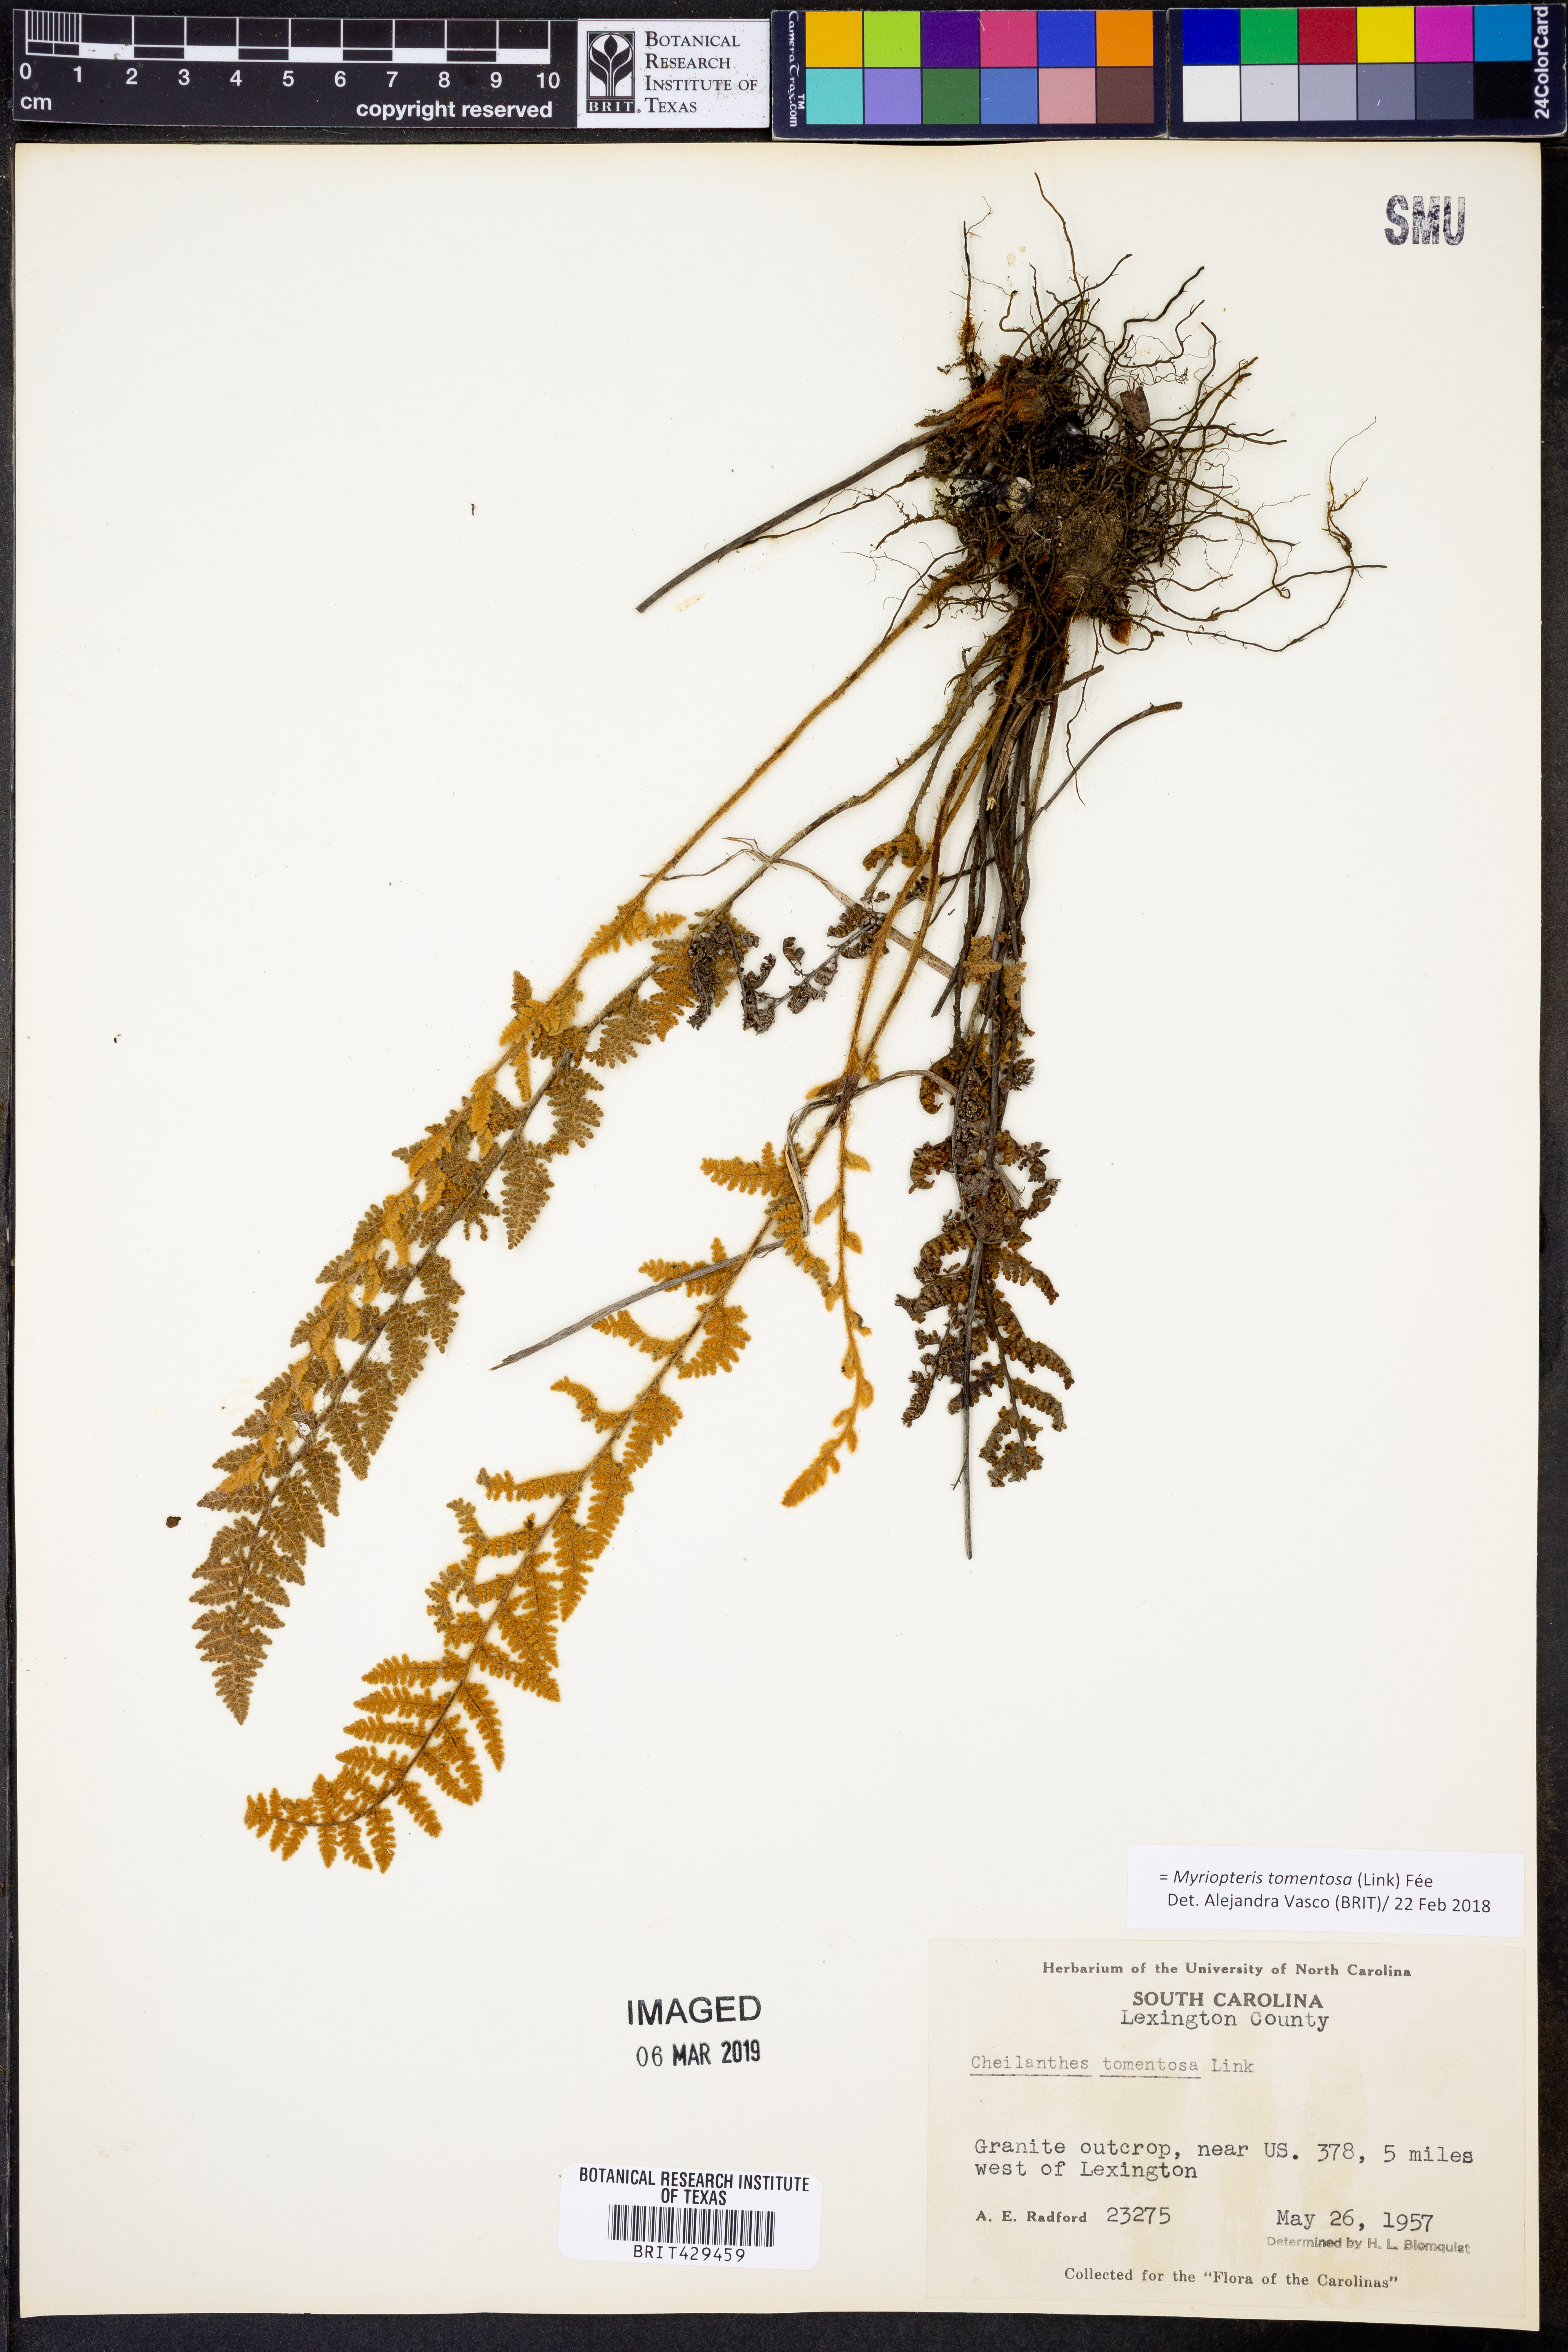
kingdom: Plantae
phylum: Tracheophyta
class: Polypodiopsida
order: Polypodiales
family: Pteridaceae
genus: Myriopteris
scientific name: Myriopteris tomentosa
